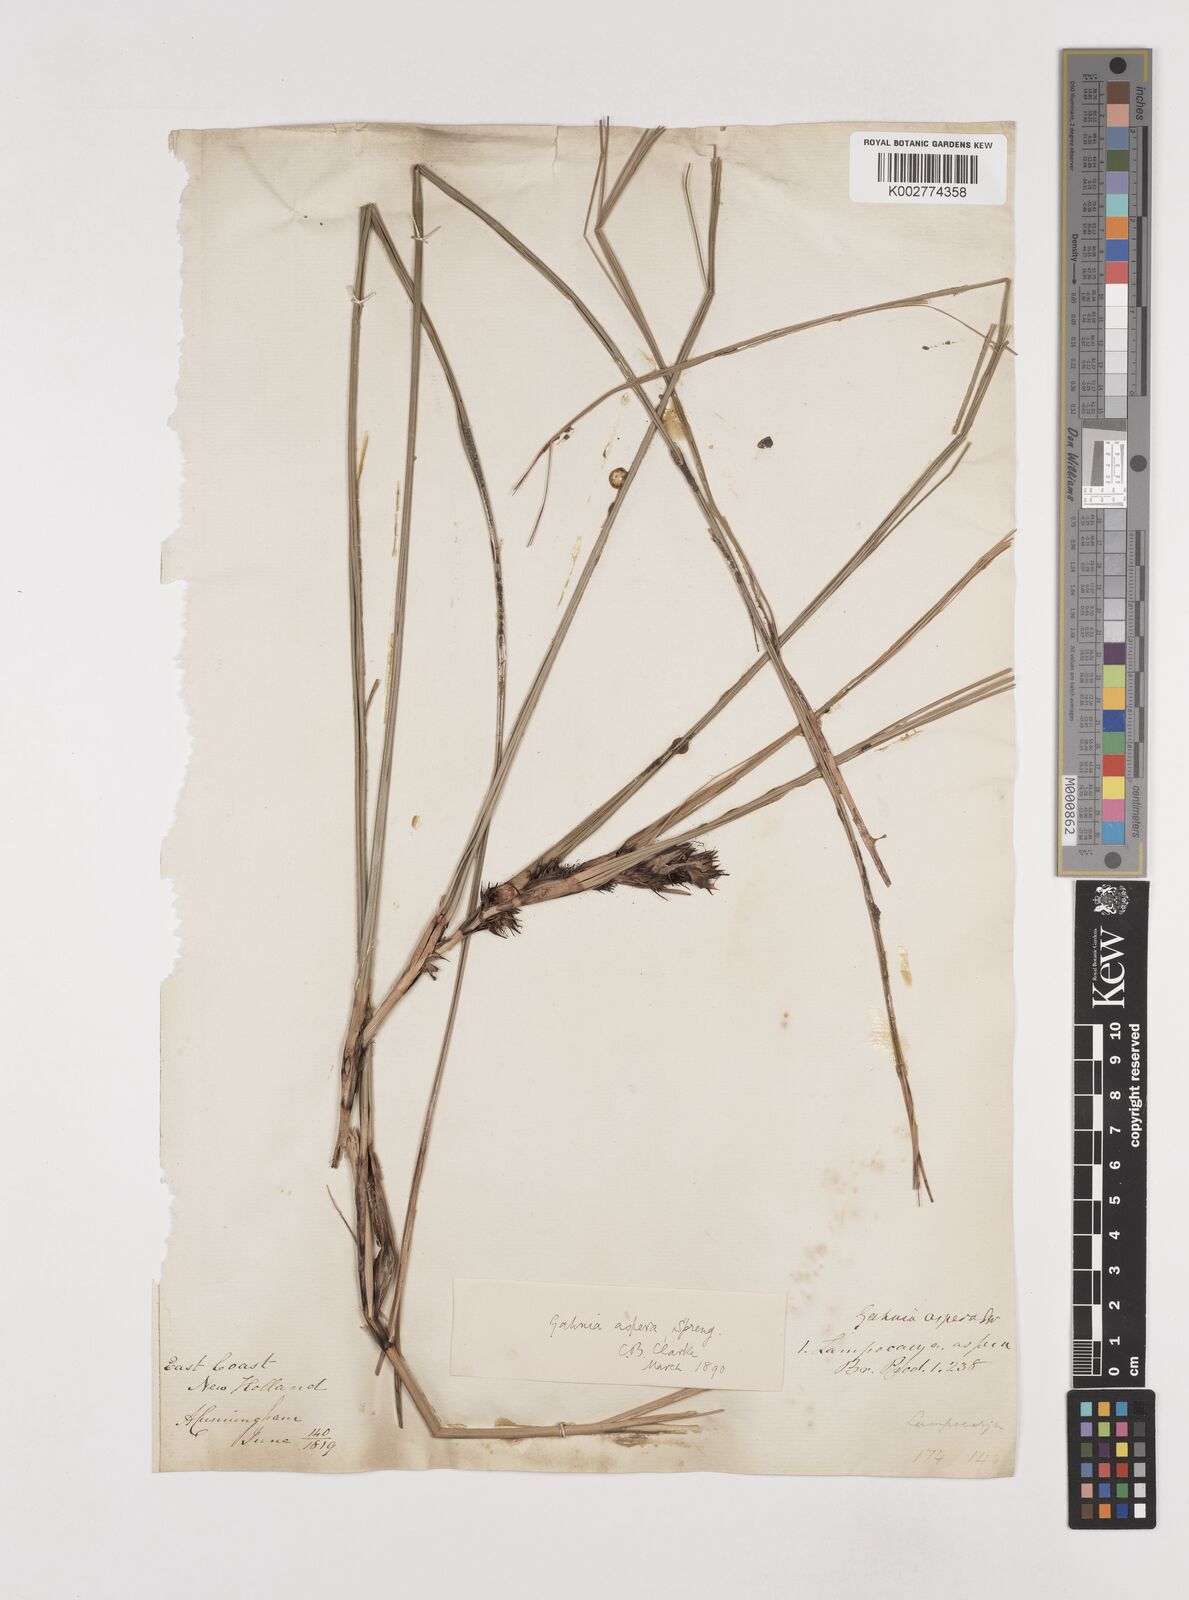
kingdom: Plantae
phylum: Tracheophyta
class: Liliopsida
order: Poales
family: Cyperaceae
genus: Gahnia
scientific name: Gahnia aspera
